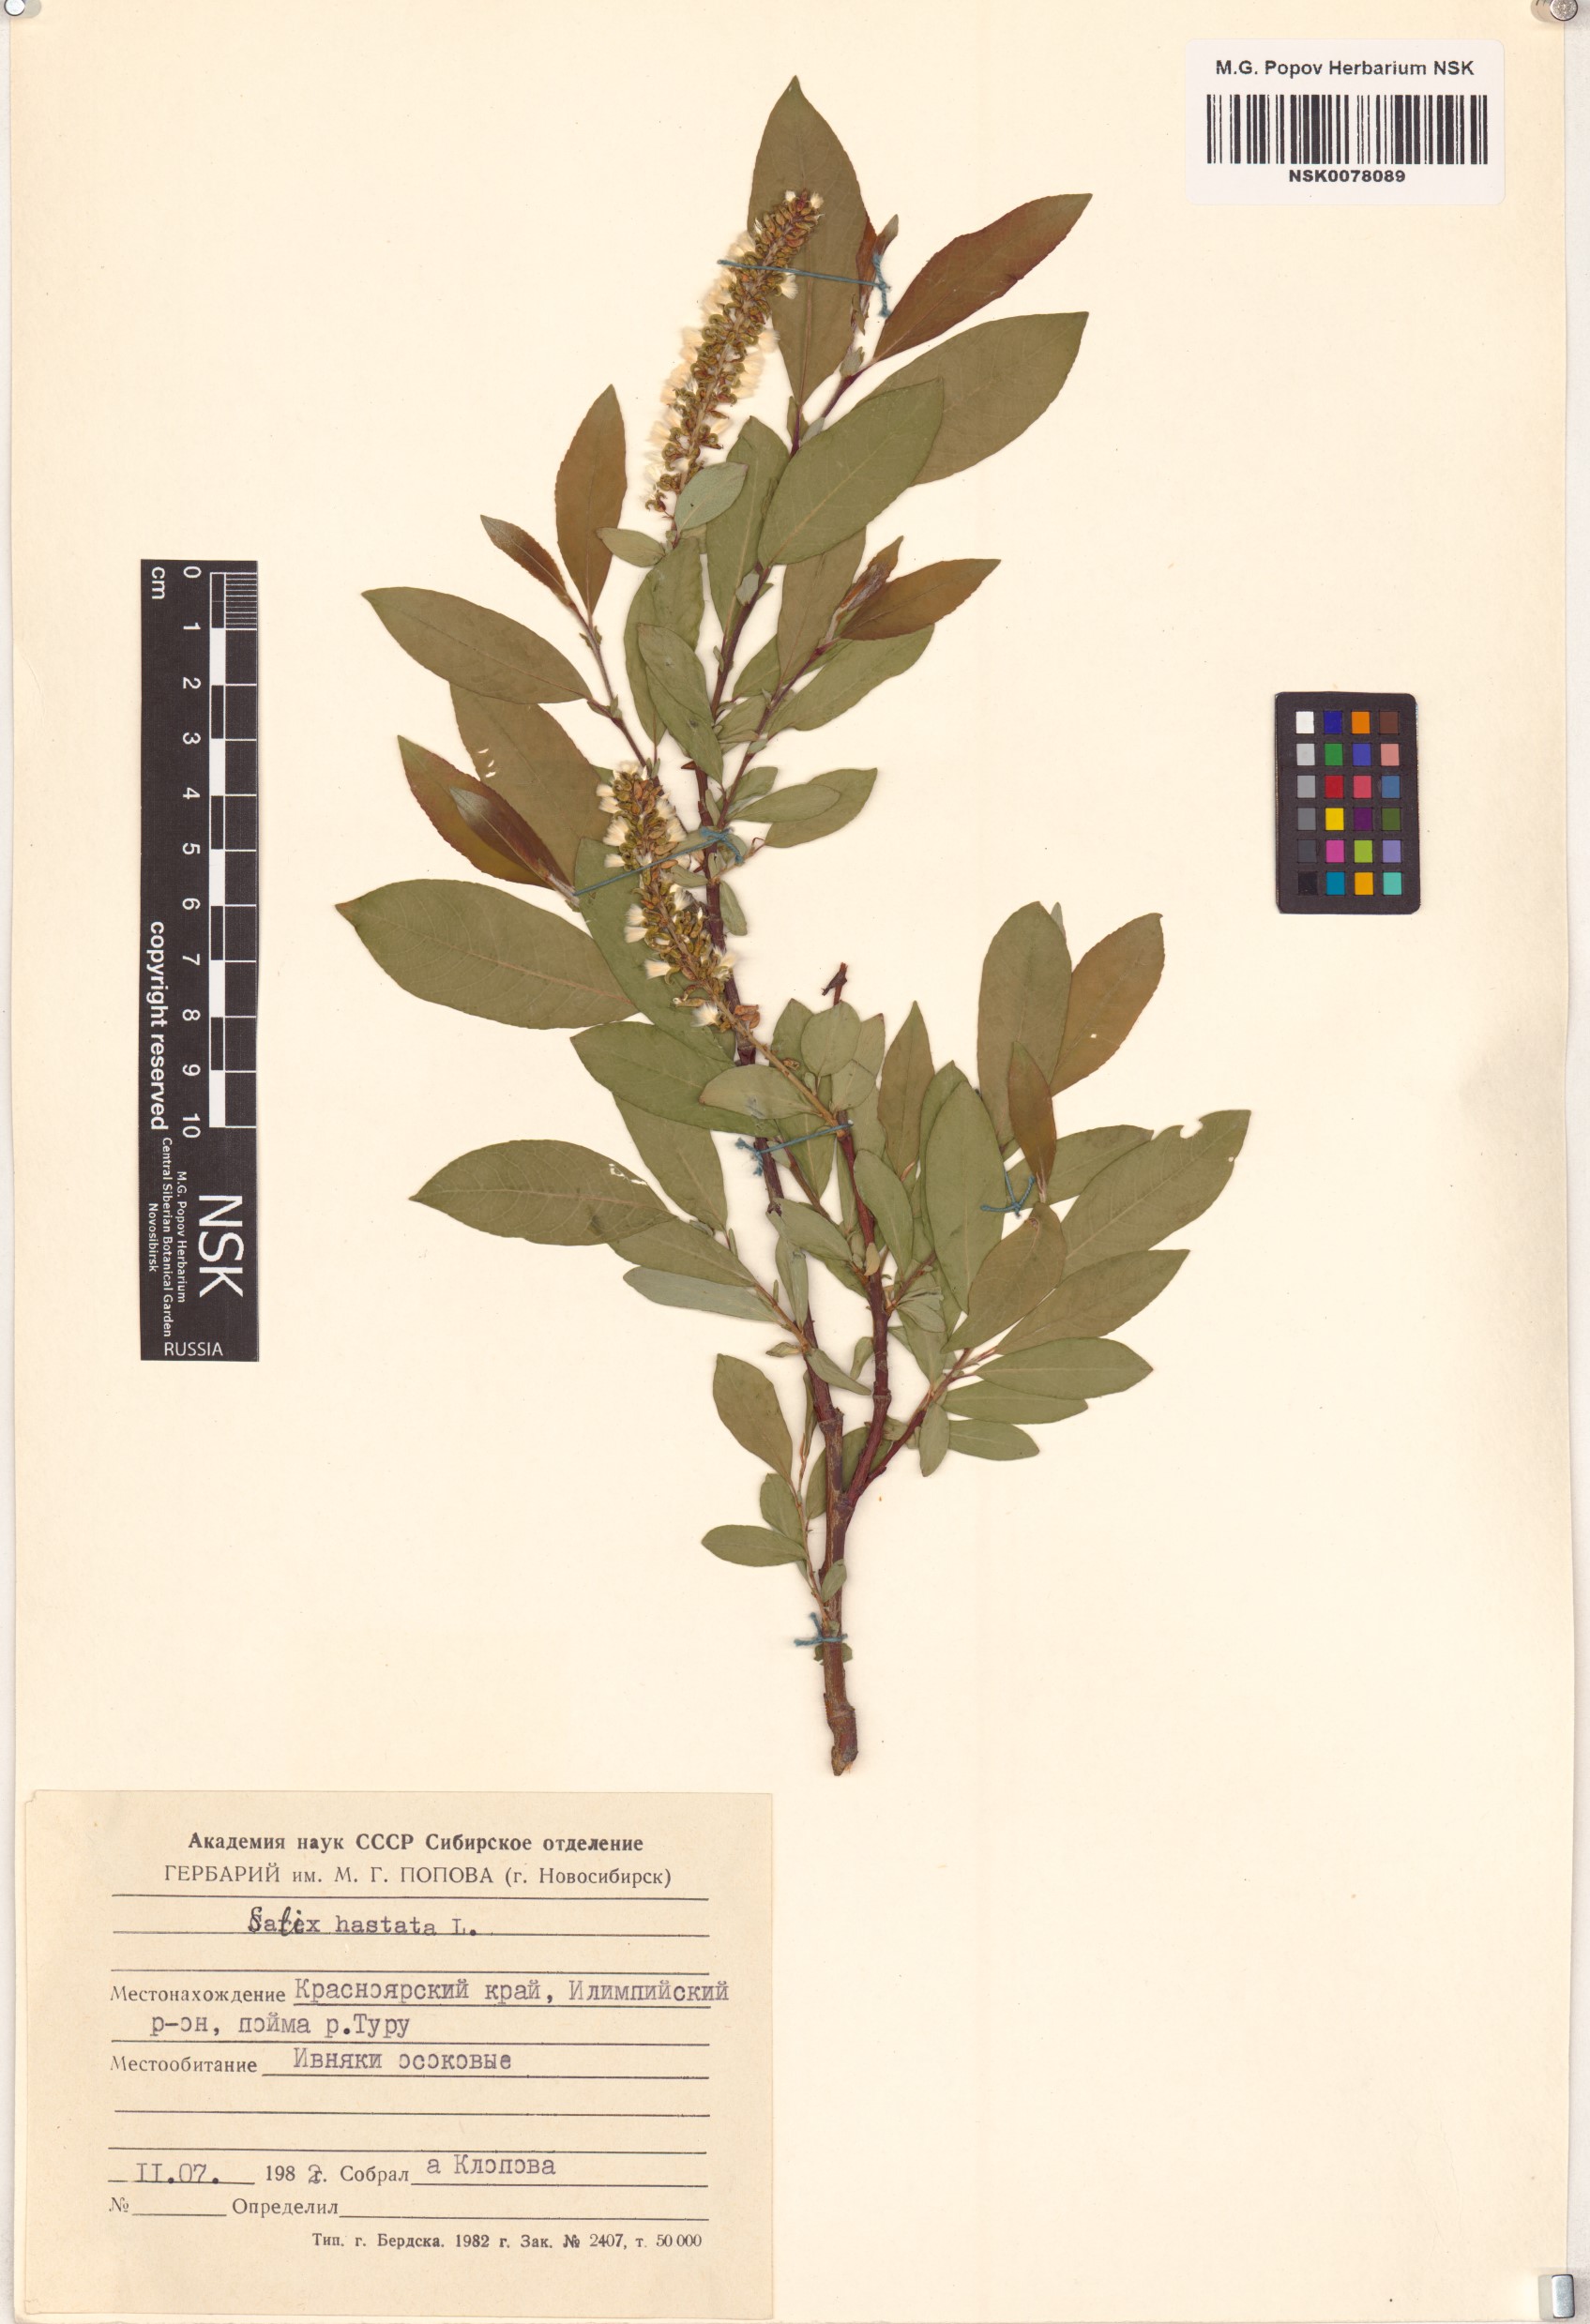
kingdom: Plantae
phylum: Tracheophyta
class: Magnoliopsida
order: Malpighiales
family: Salicaceae
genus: Salix
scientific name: Salix hastata
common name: Halberd willow
